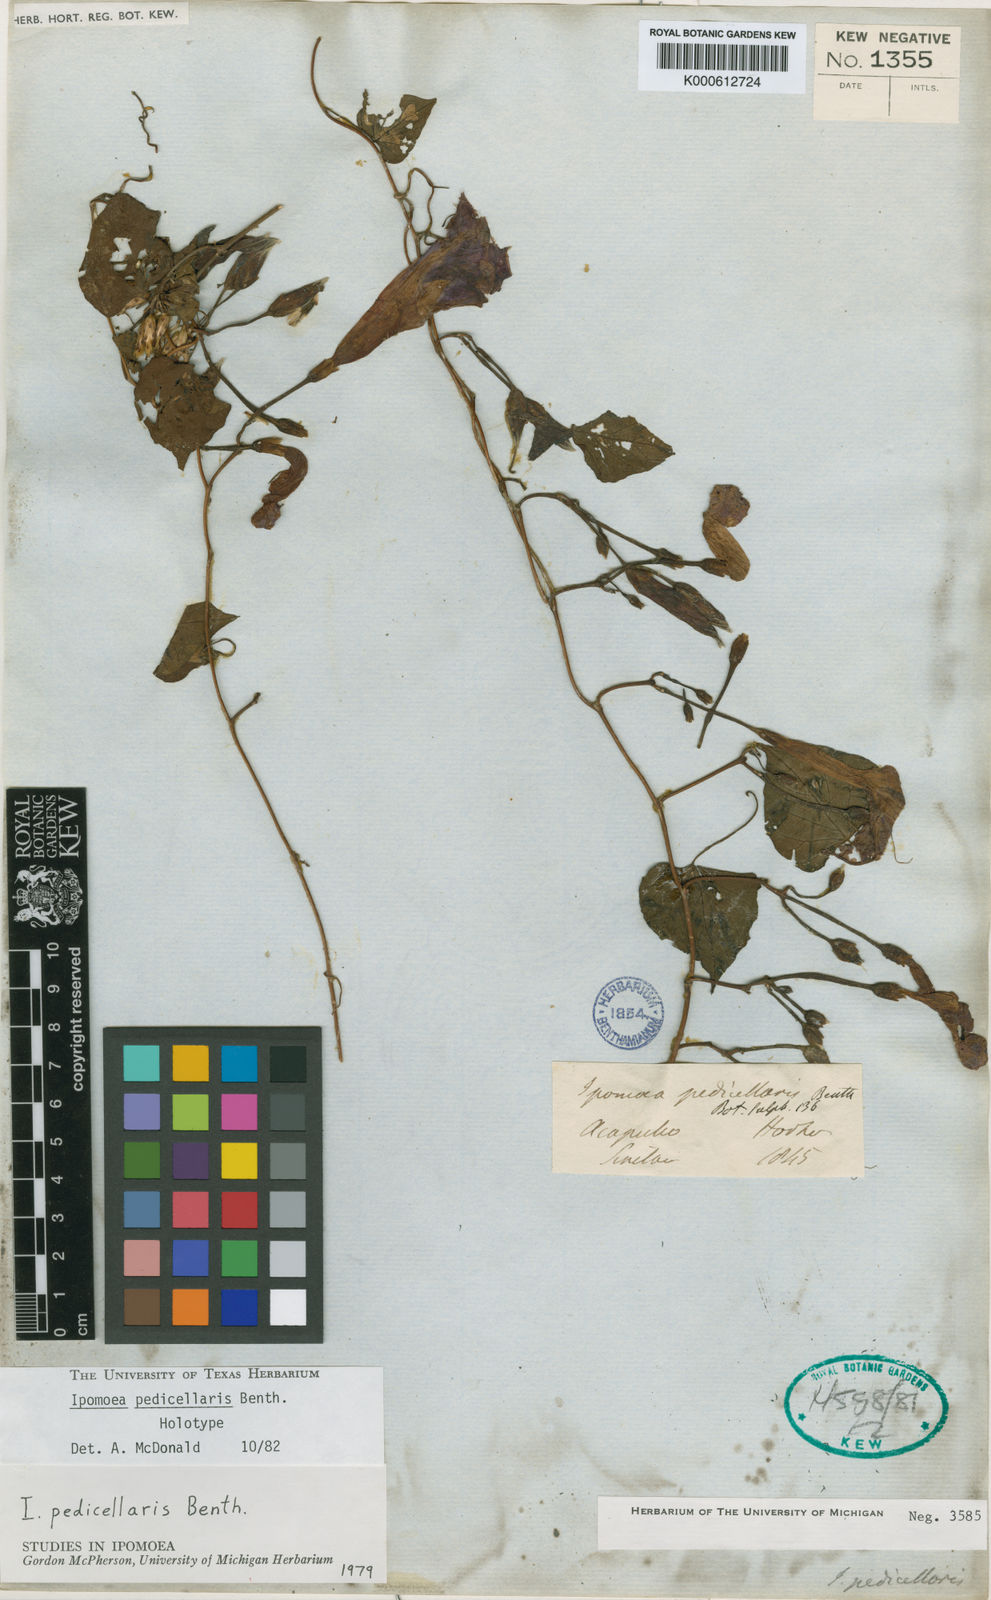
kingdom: Plantae
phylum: Tracheophyta
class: Magnoliopsida
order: Solanales
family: Convolvulaceae
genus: Ipomoea
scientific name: Ipomoea pedicellaris
